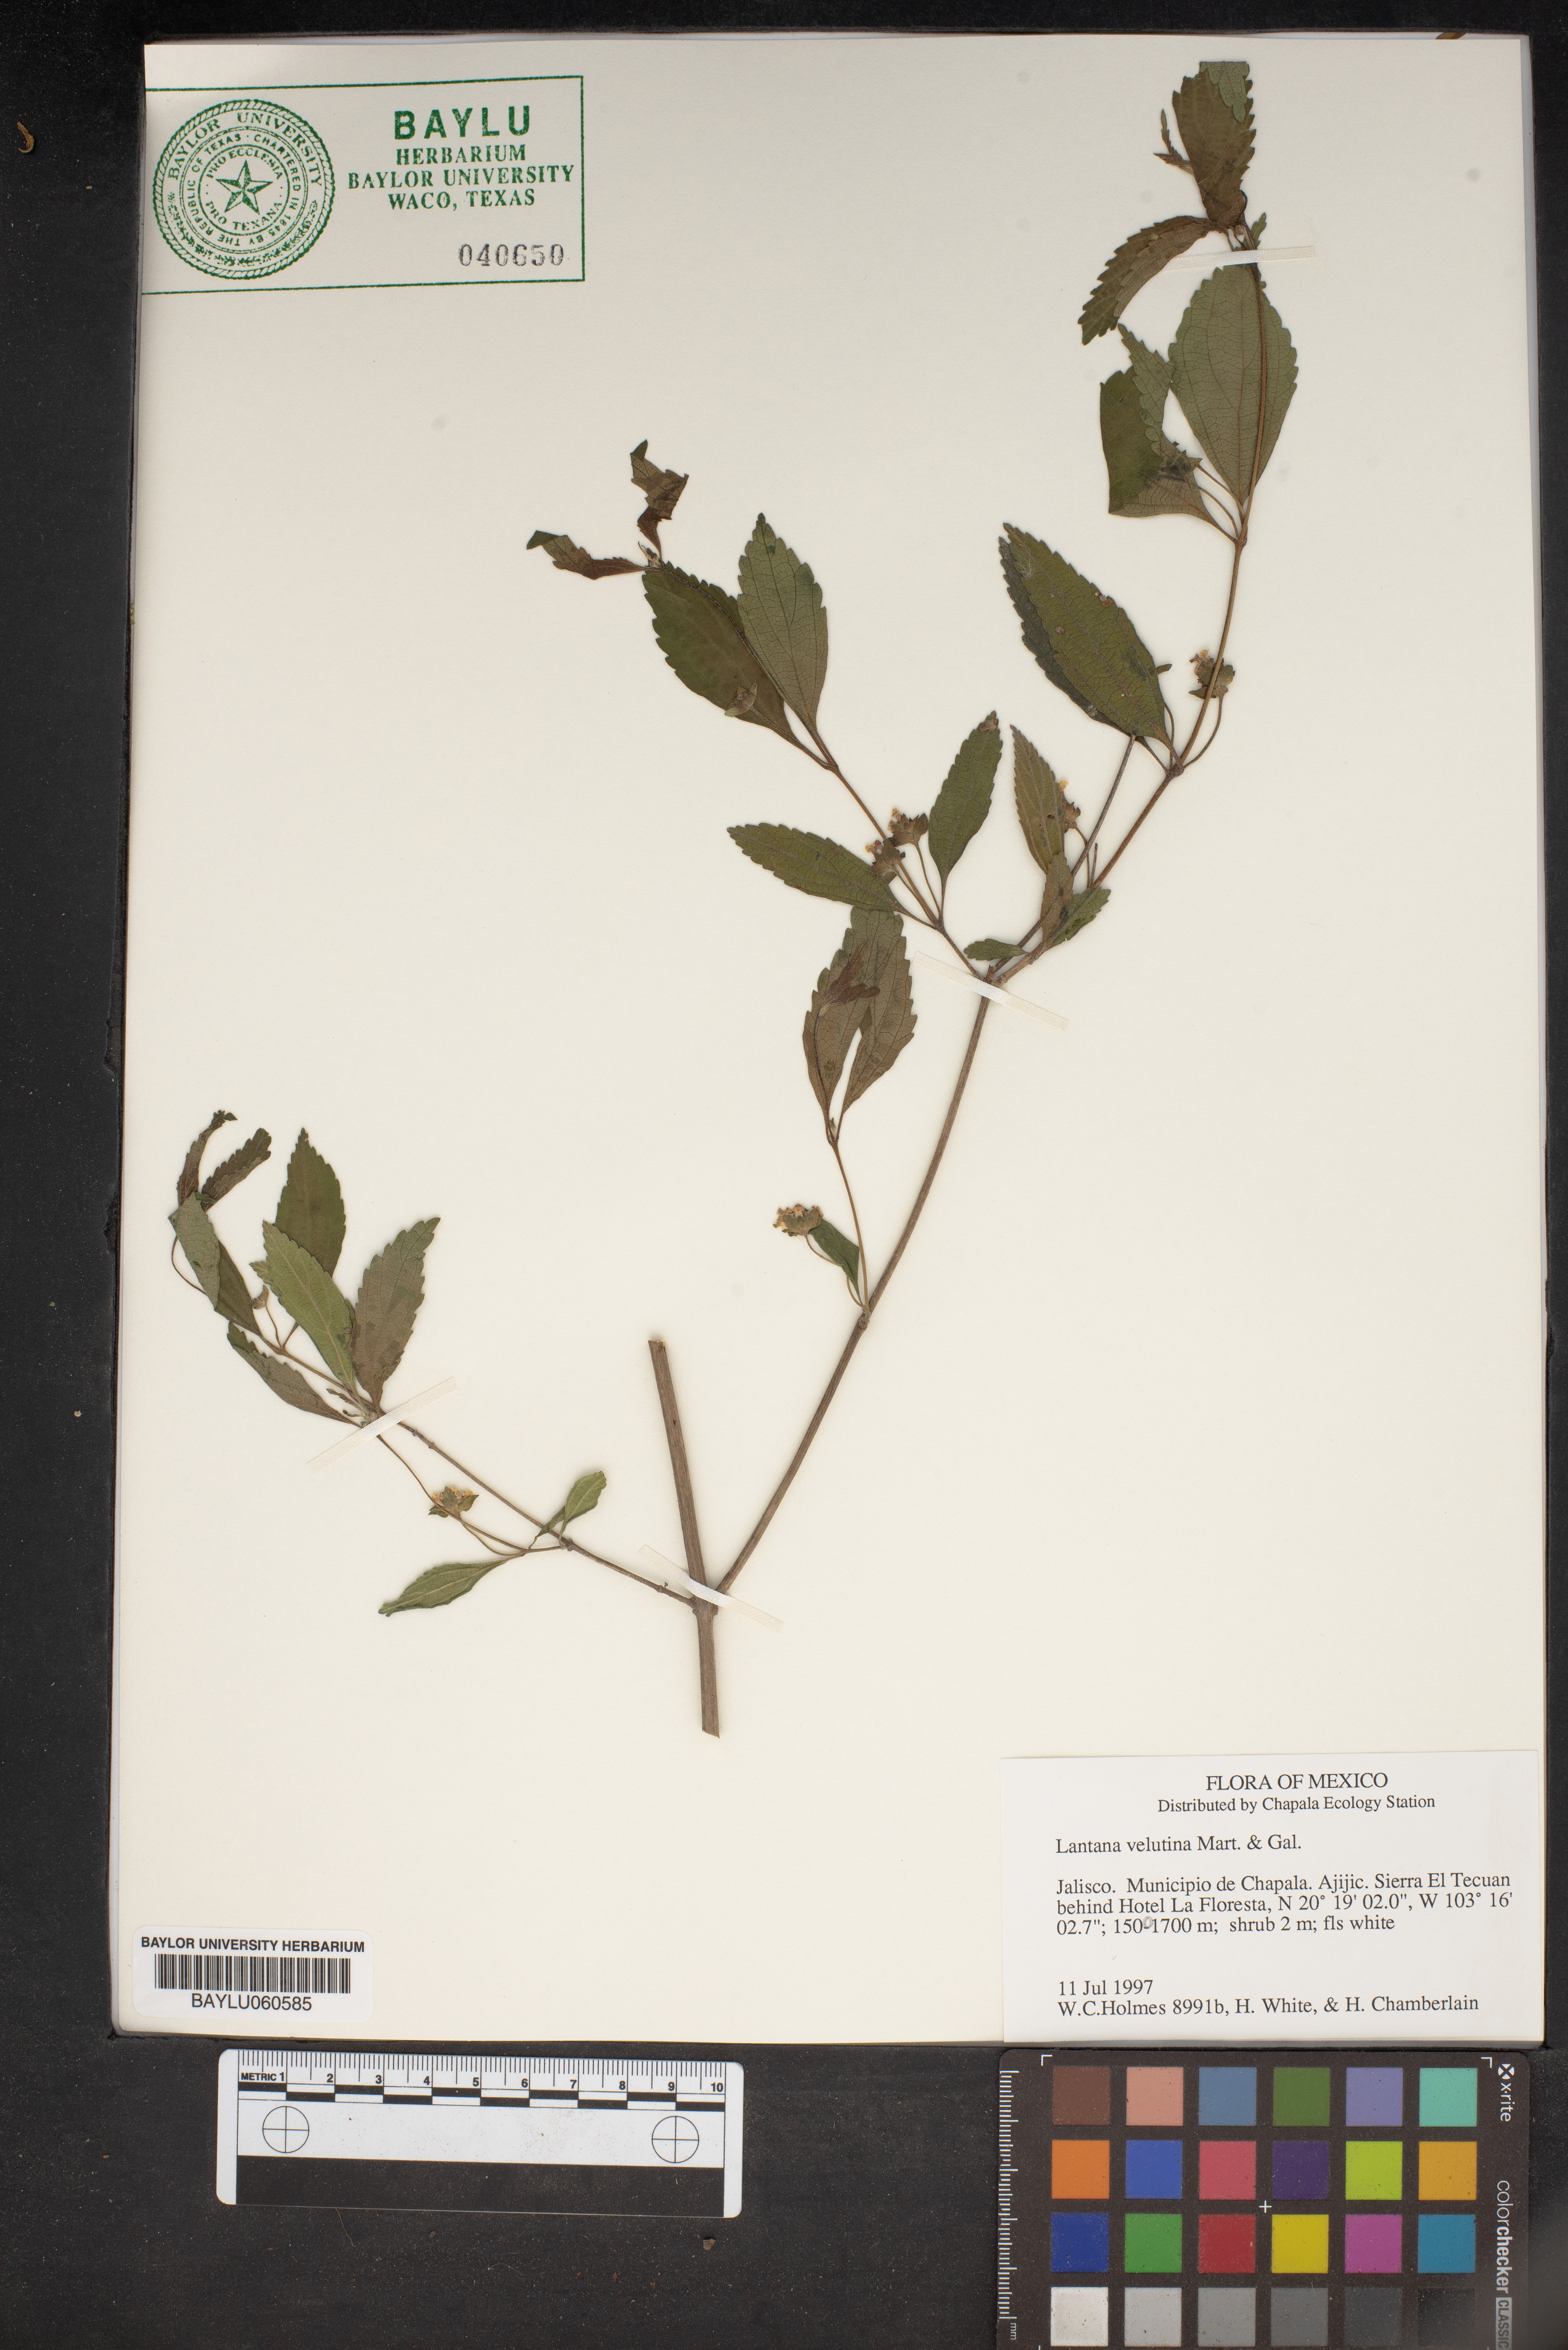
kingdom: Plantae
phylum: Tracheophyta
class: Magnoliopsida
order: Lamiales
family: Verbenaceae
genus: Lantana
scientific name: Lantana velutina
